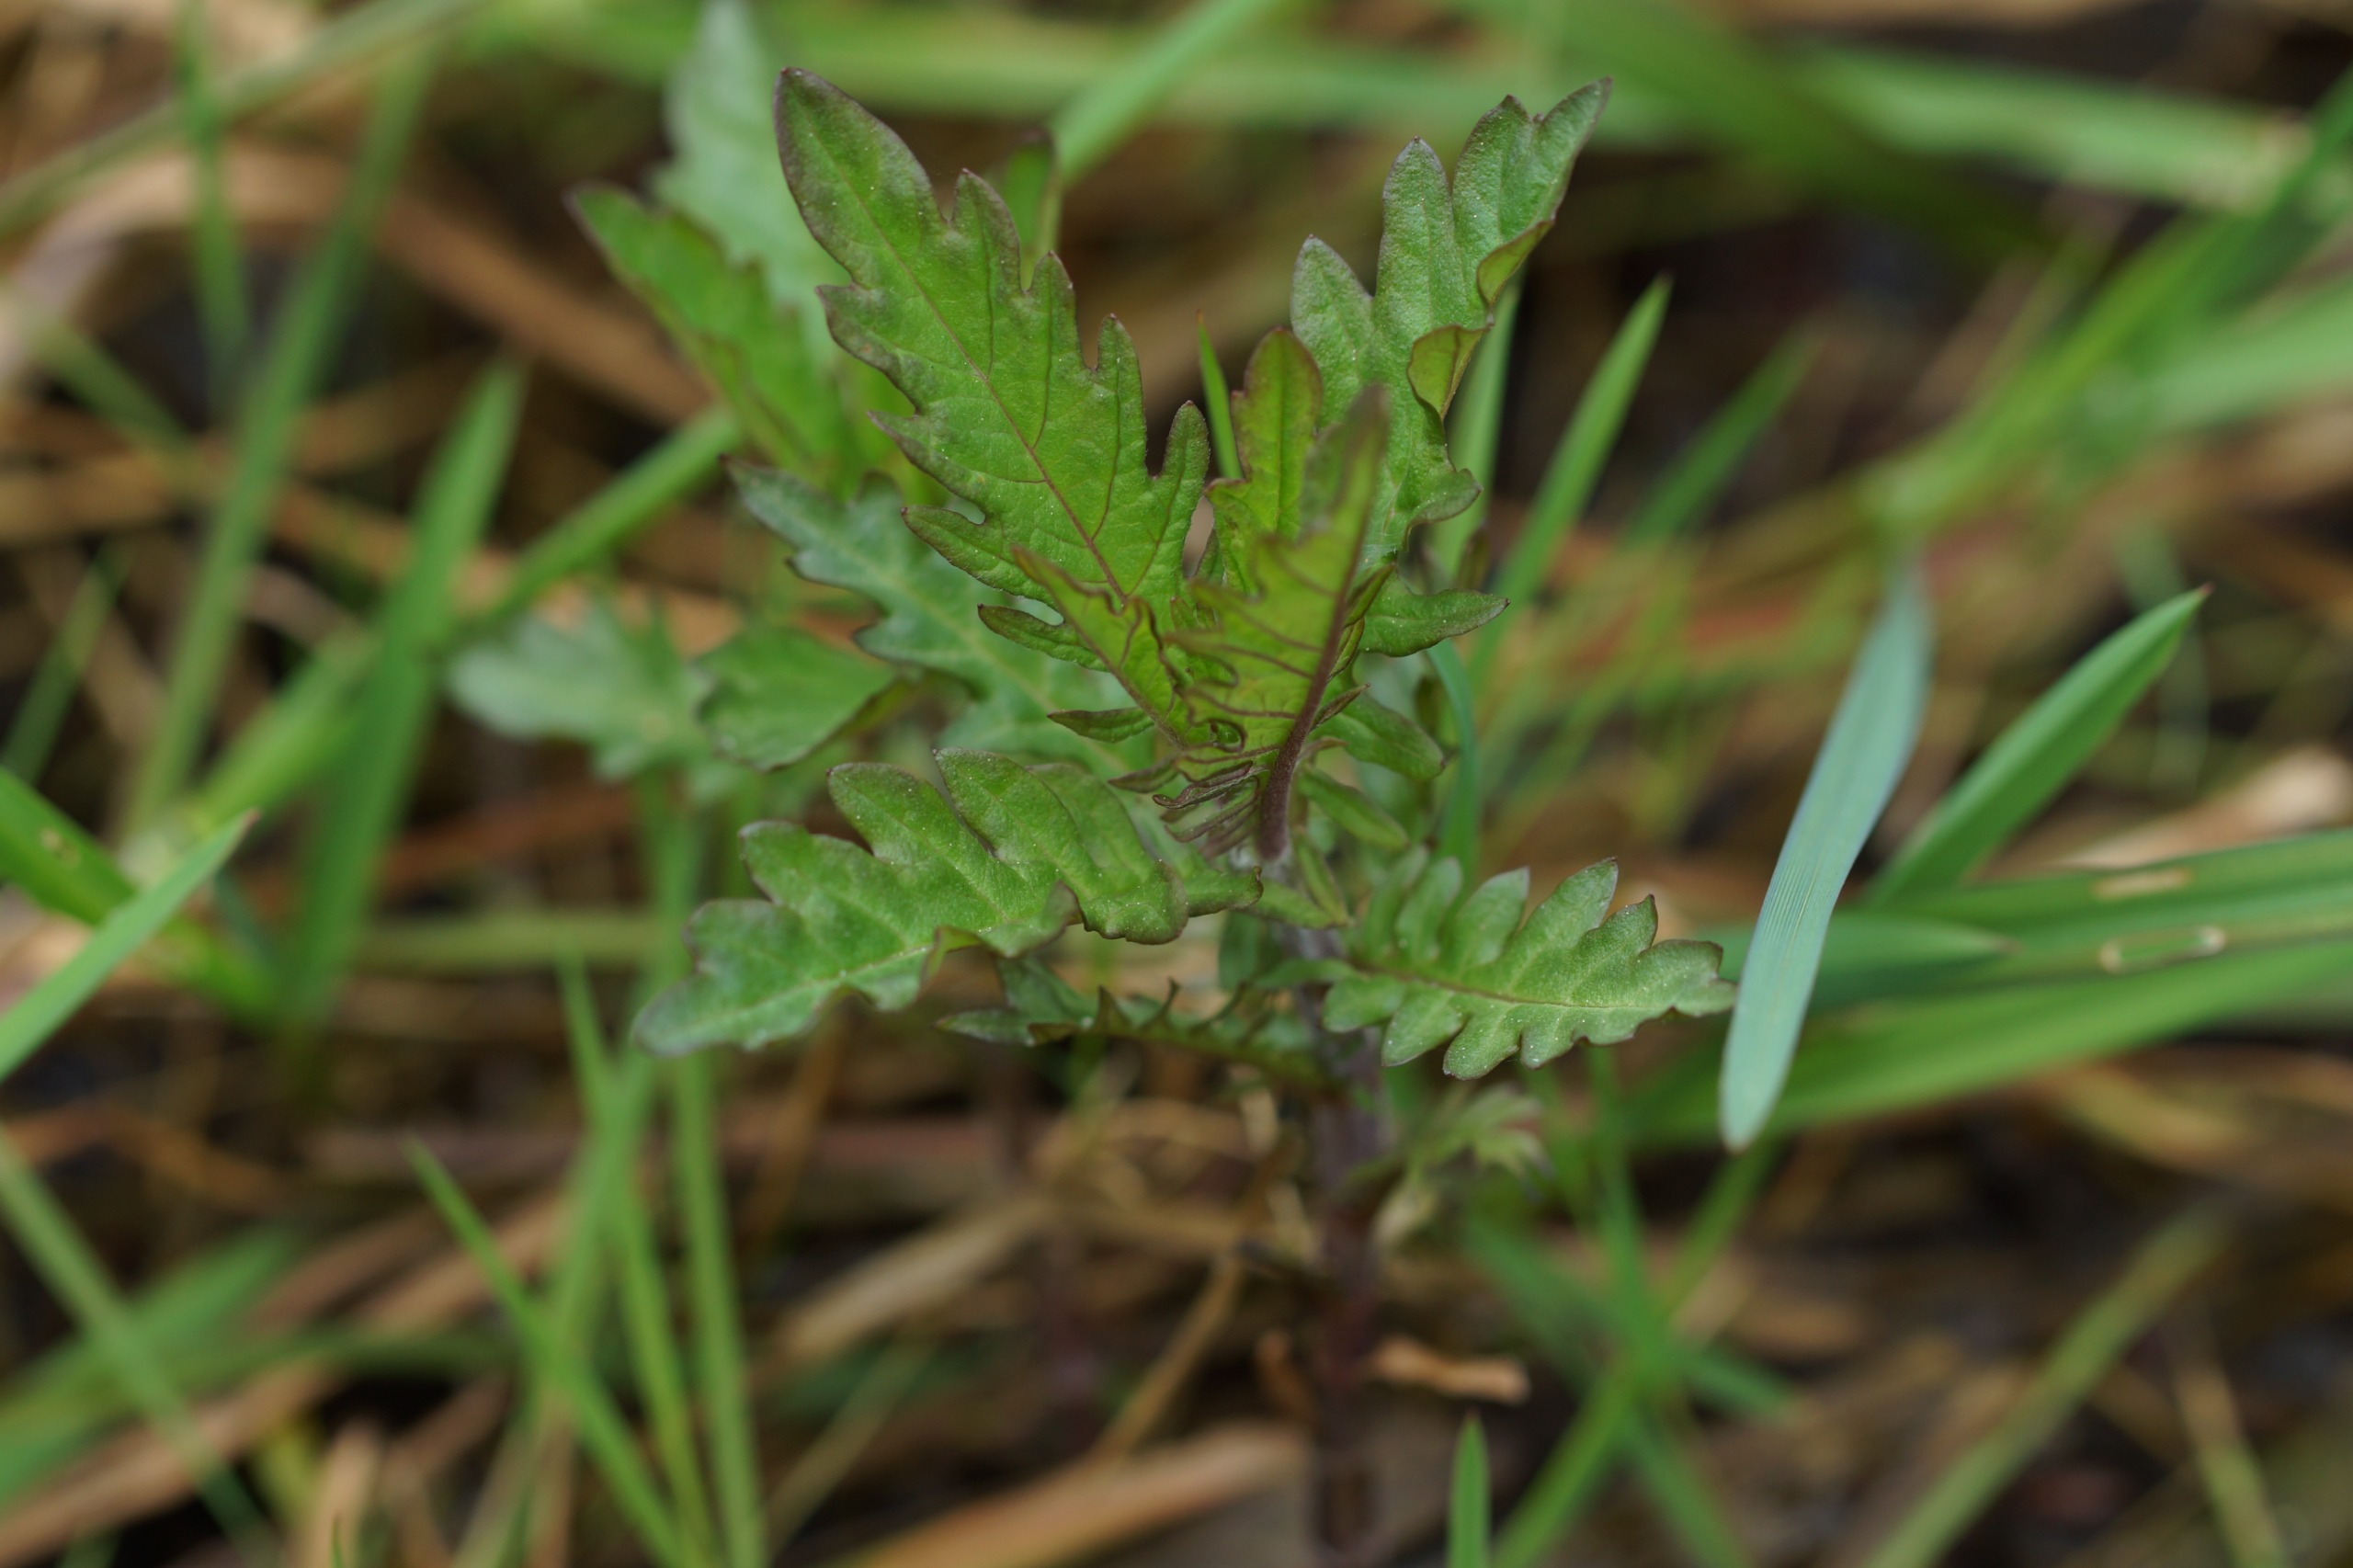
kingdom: Plantae
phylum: Tracheophyta
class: Magnoliopsida
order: Lamiales
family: Lamiaceae
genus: Lycopus
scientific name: Lycopus europaeus
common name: Sværtevæld
